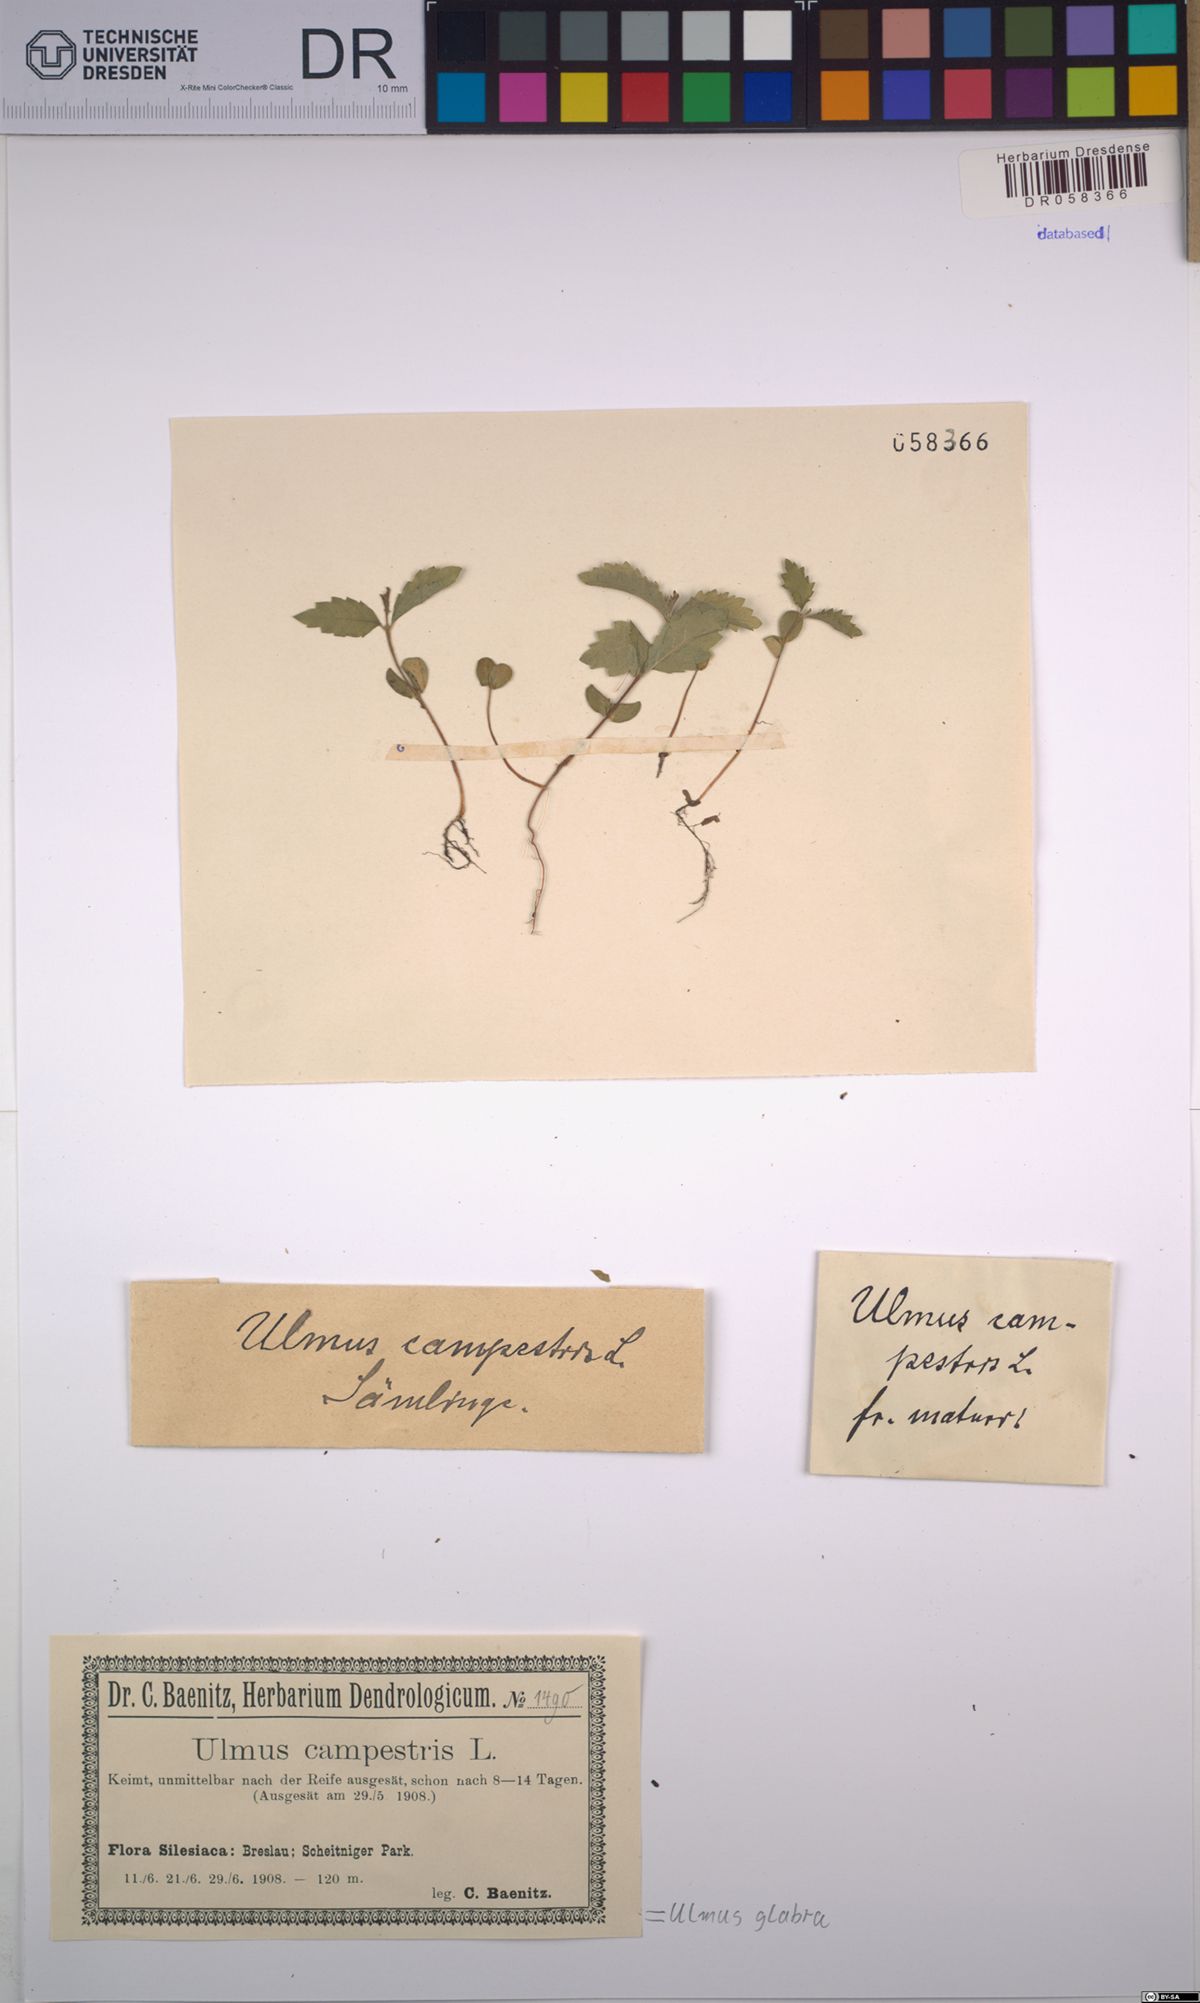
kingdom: Plantae
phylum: Tracheophyta
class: Magnoliopsida
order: Rosales
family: Ulmaceae
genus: Ulmus
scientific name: Ulmus glabra
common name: Wych elm
